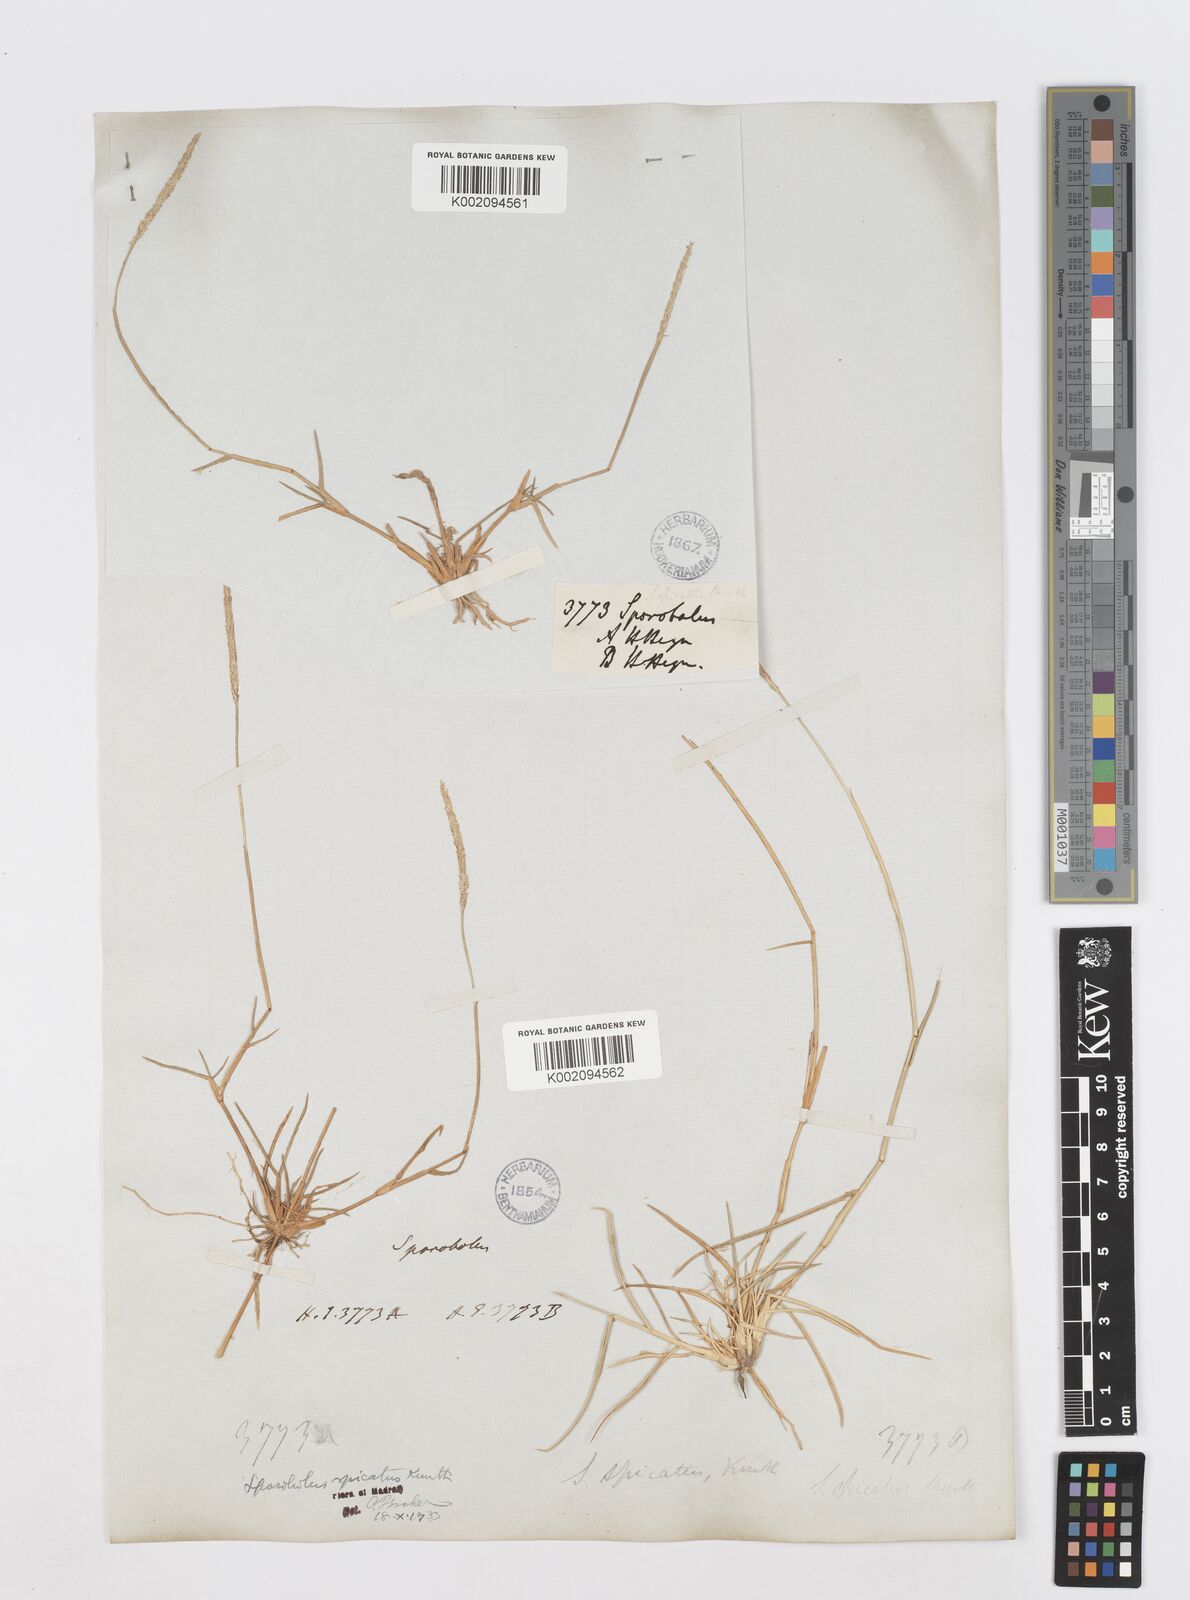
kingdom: Plantae
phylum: Tracheophyta
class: Liliopsida
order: Poales
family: Poaceae
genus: Sporobolus
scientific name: Sporobolus spicatus
